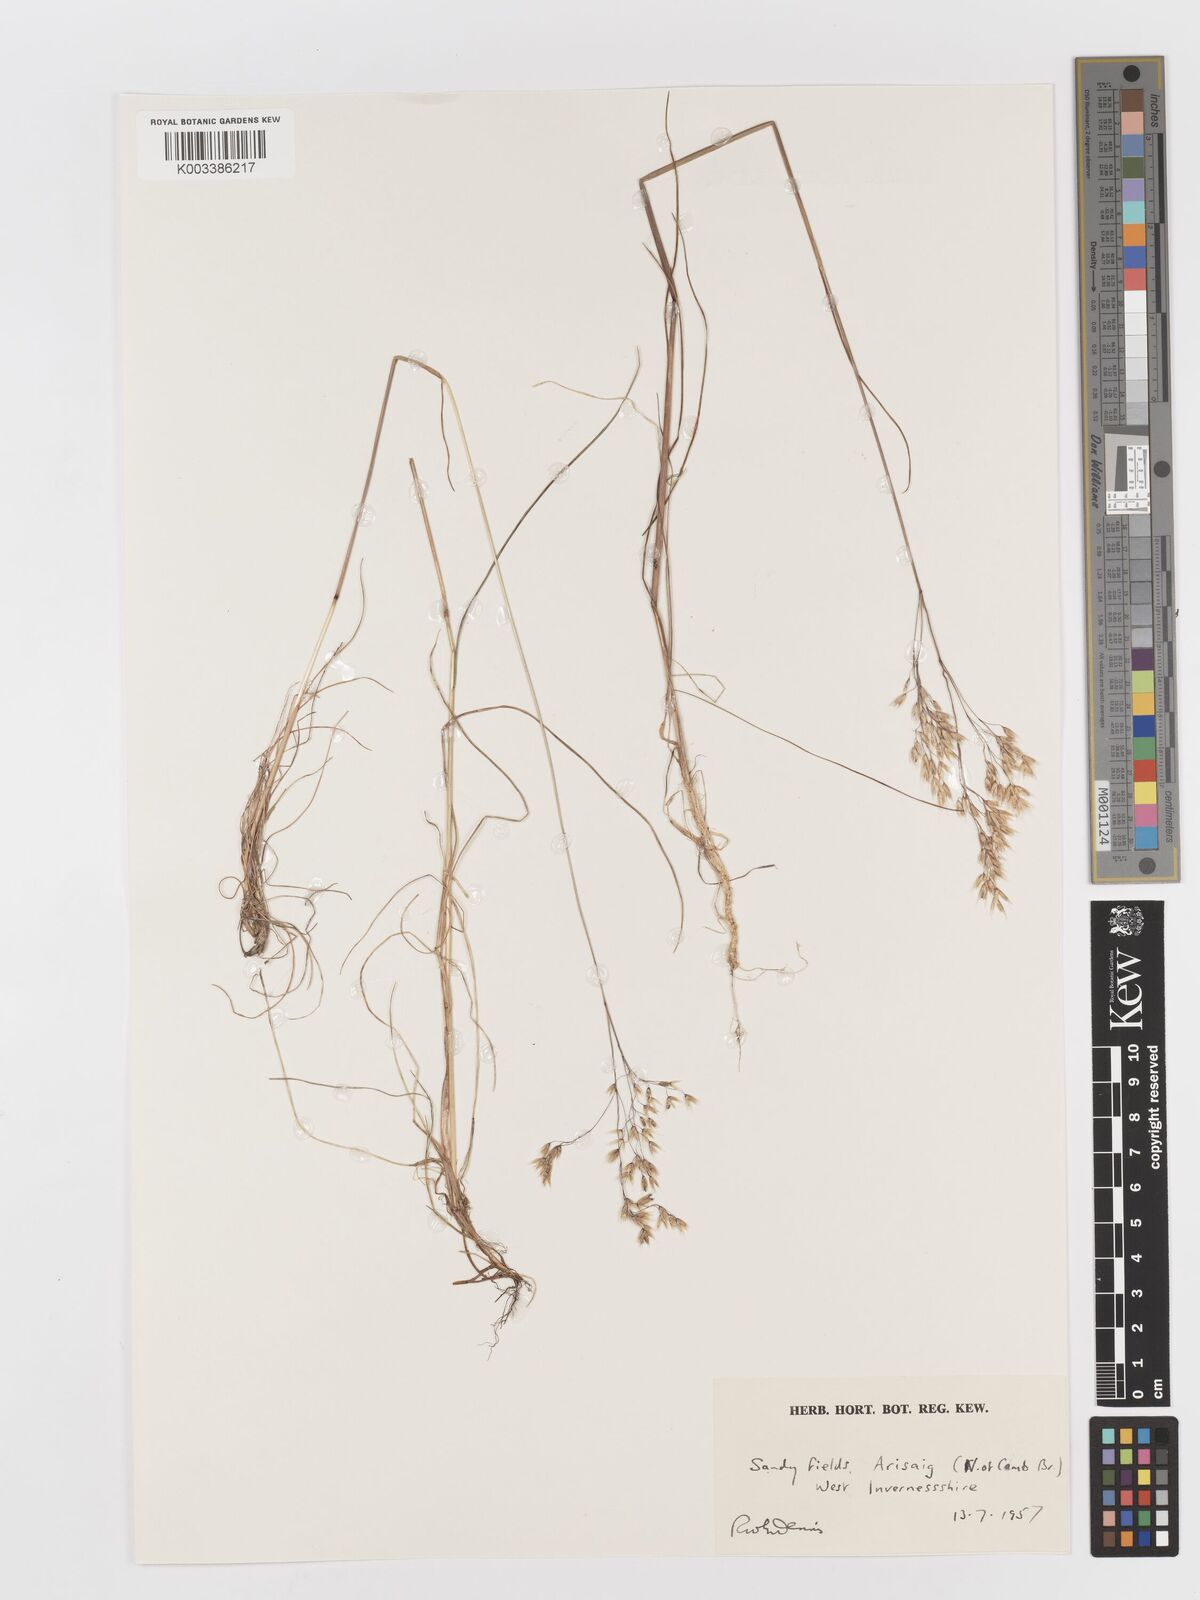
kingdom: Plantae
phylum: Tracheophyta
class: Liliopsida
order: Poales
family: Poaceae
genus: Deschampsia
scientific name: Deschampsia
